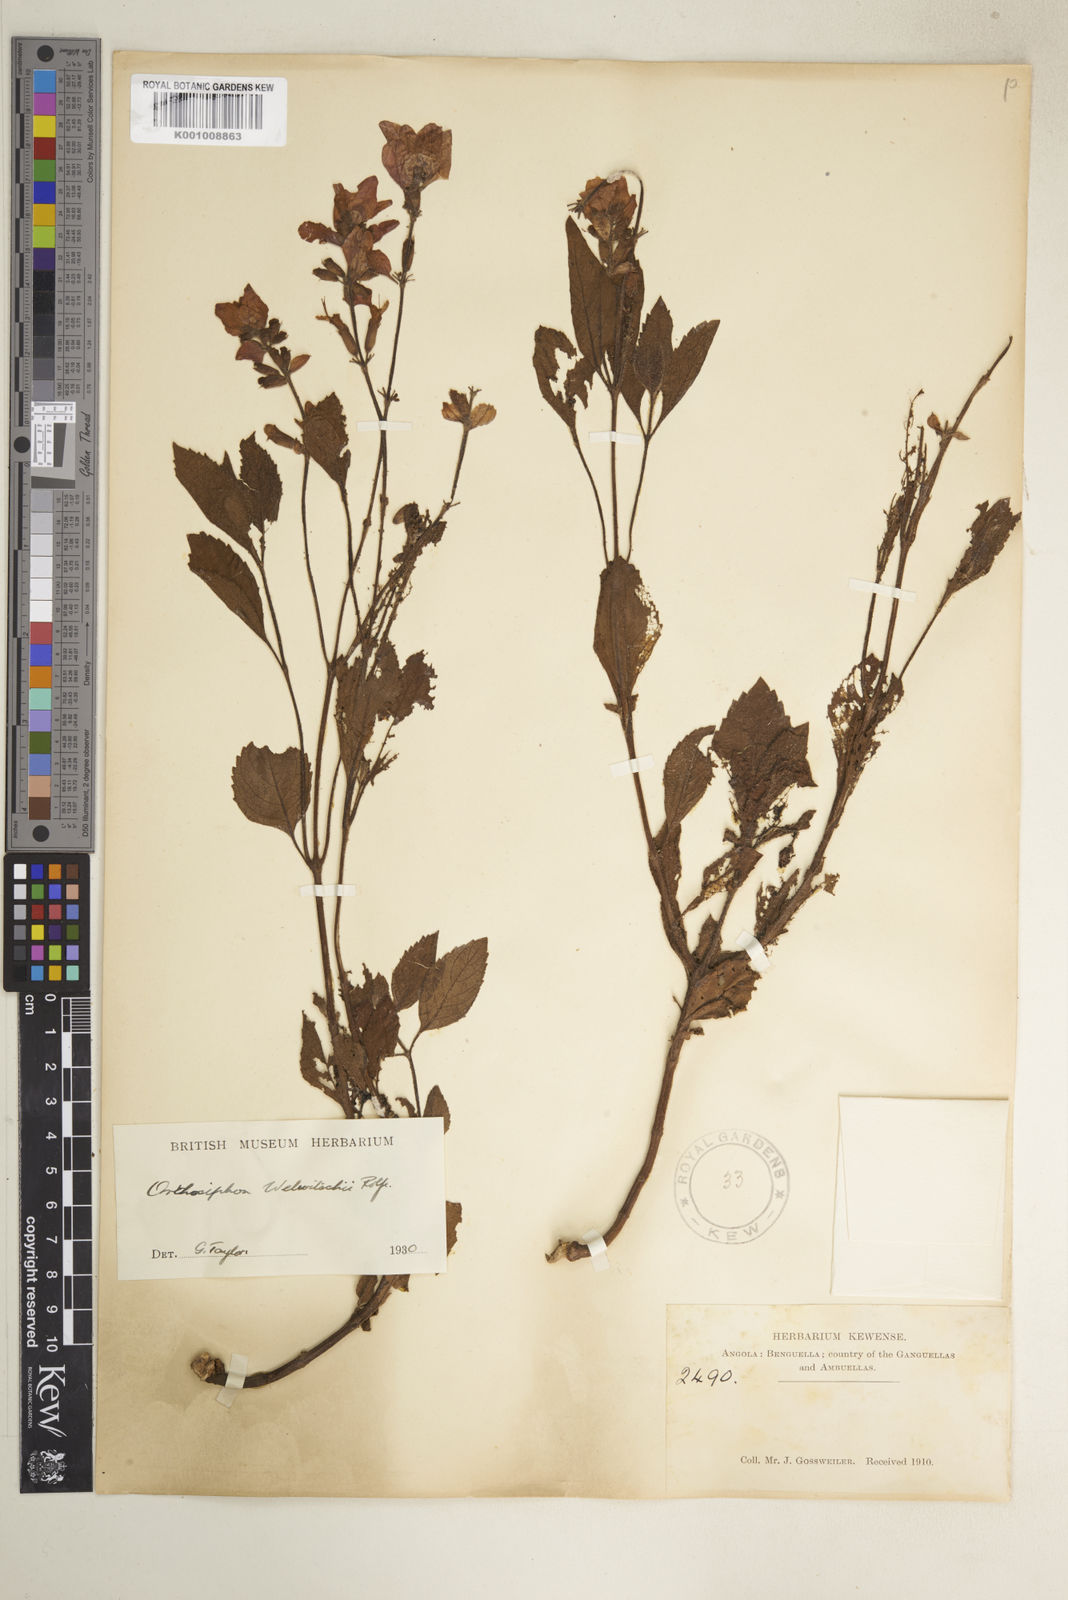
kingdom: Plantae
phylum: Tracheophyta
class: Magnoliopsida
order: Lamiales
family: Lamiaceae
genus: Syncolostemon
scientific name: Syncolostemon welwitschii
